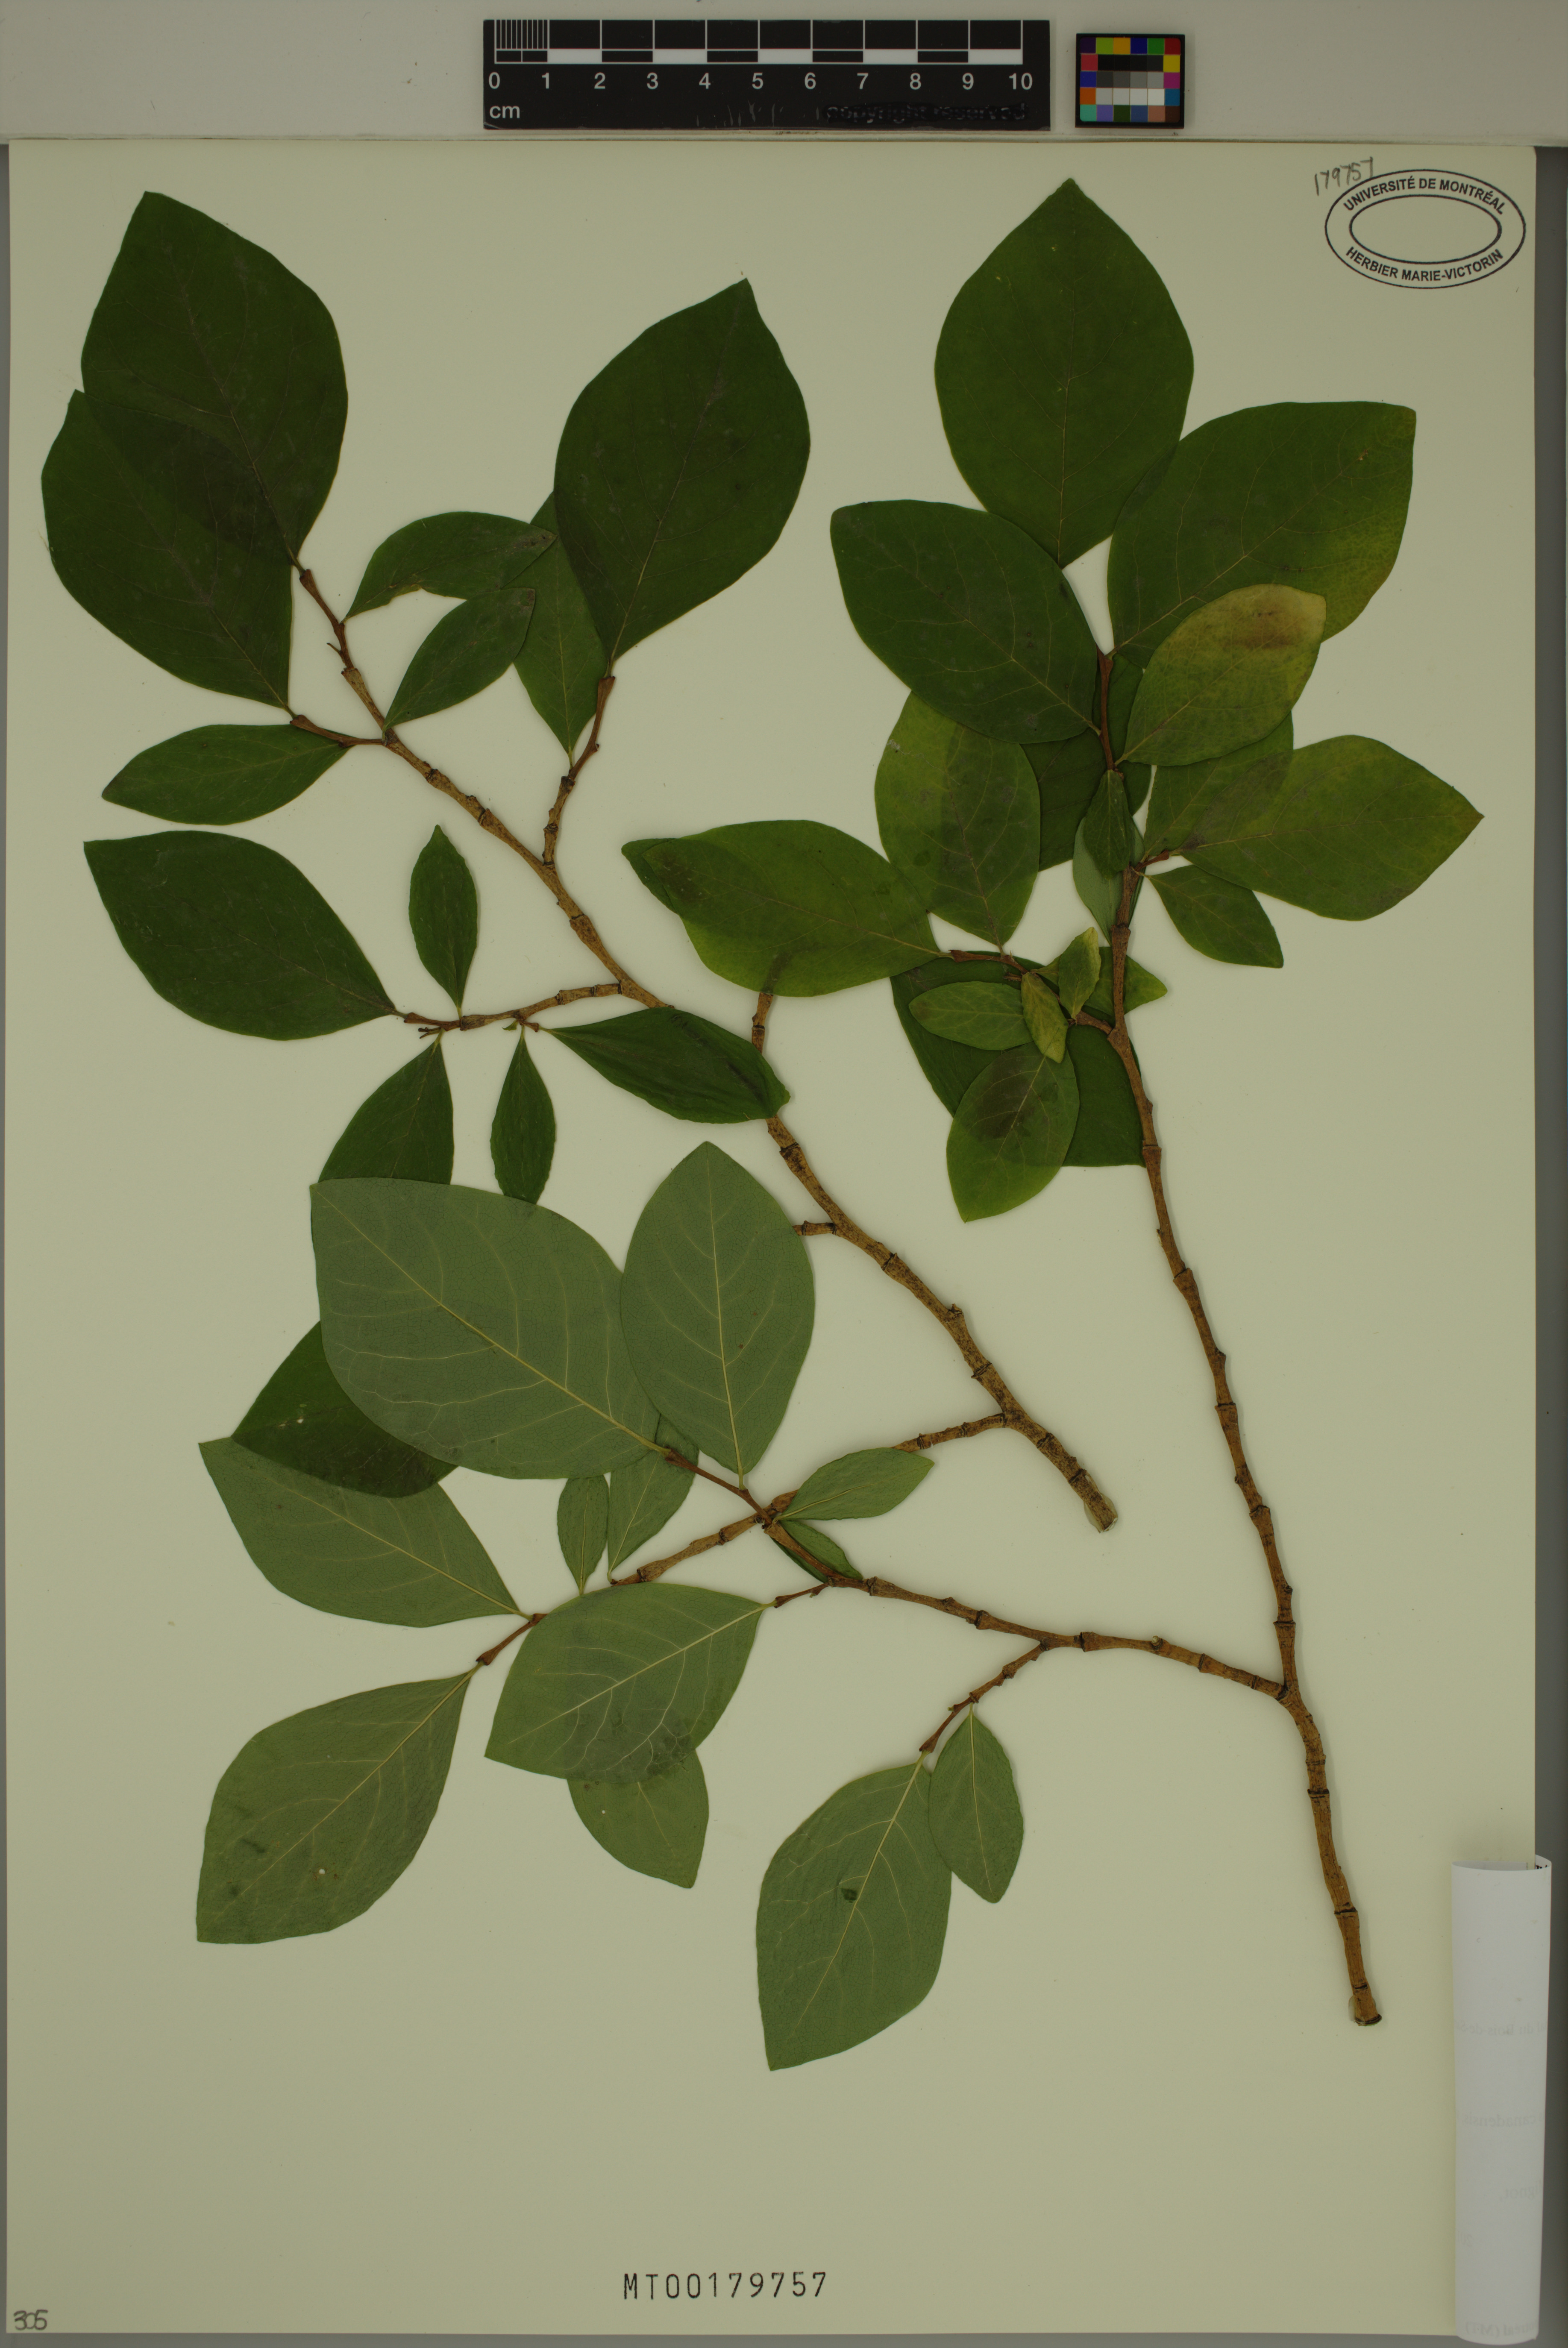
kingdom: Plantae
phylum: Tracheophyta
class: Magnoliopsida
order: Malvales
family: Thymelaeaceae
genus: Dirca
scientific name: Dirca palustris
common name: Leatherwood
